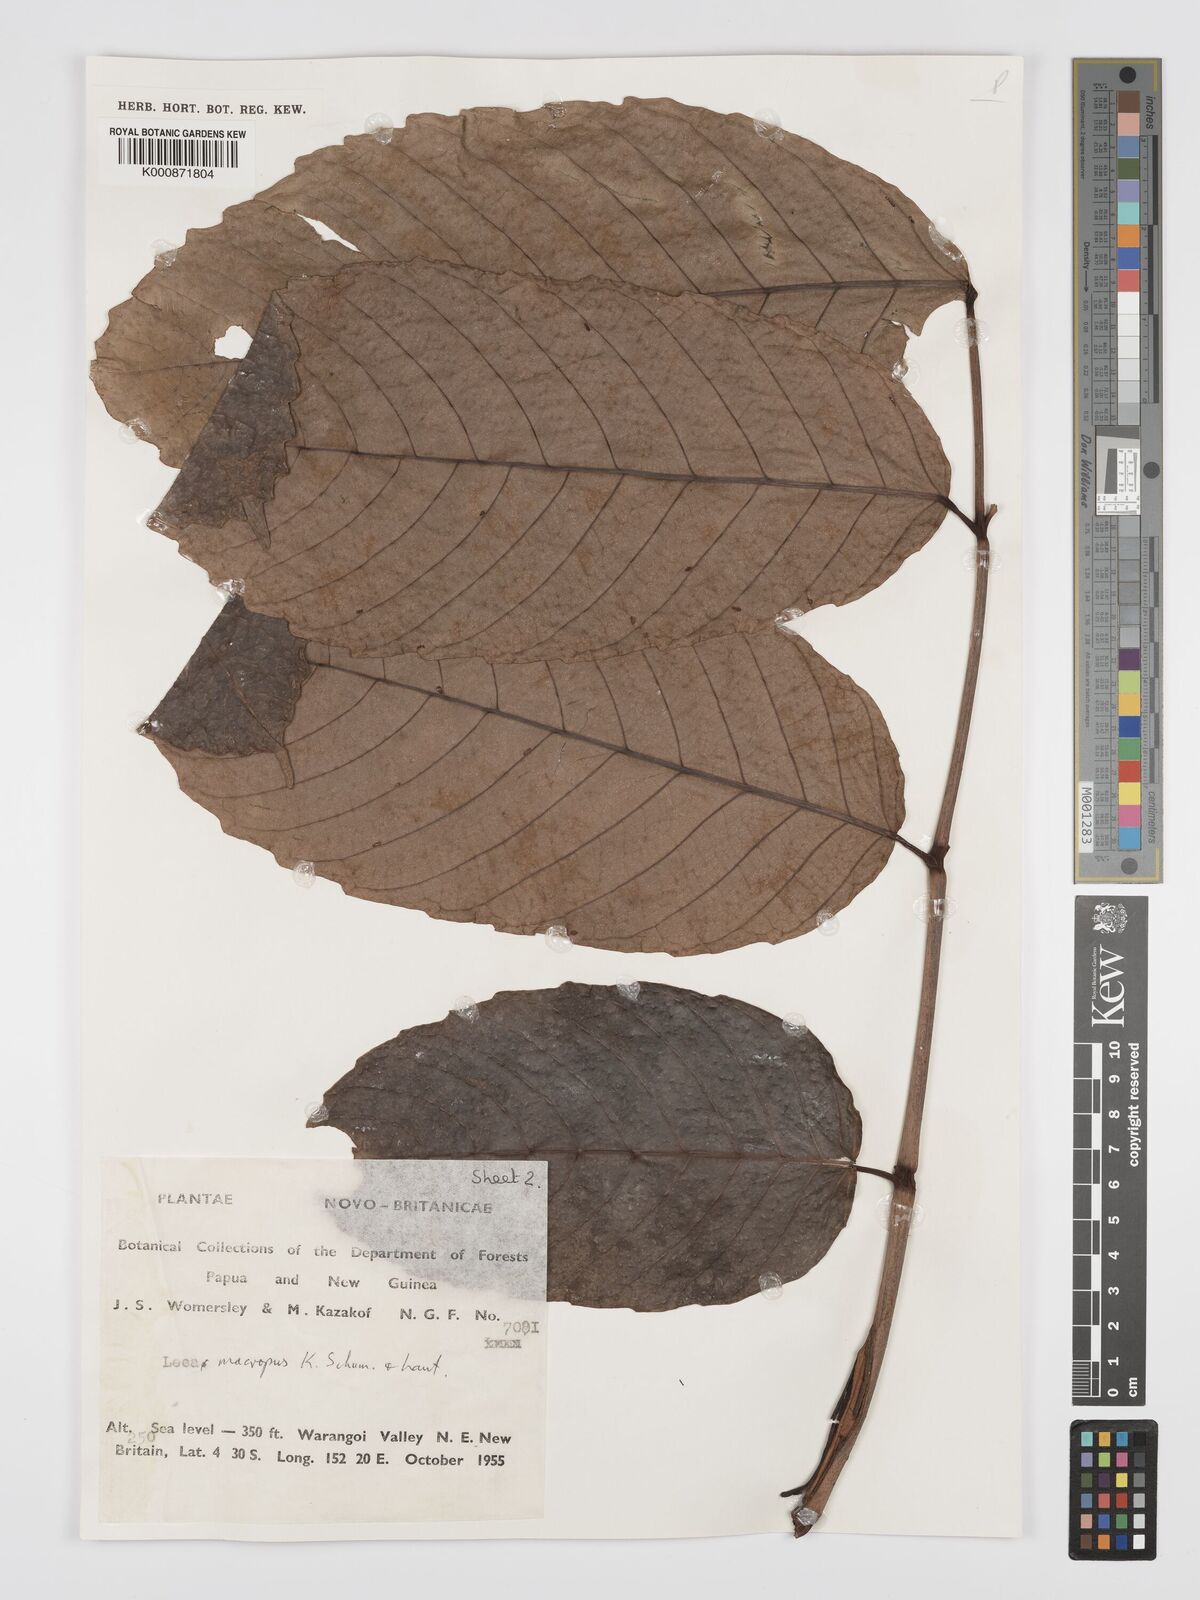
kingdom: Plantae
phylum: Tracheophyta
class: Magnoliopsida
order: Vitales
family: Vitaceae
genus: Leea
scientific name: Leea
